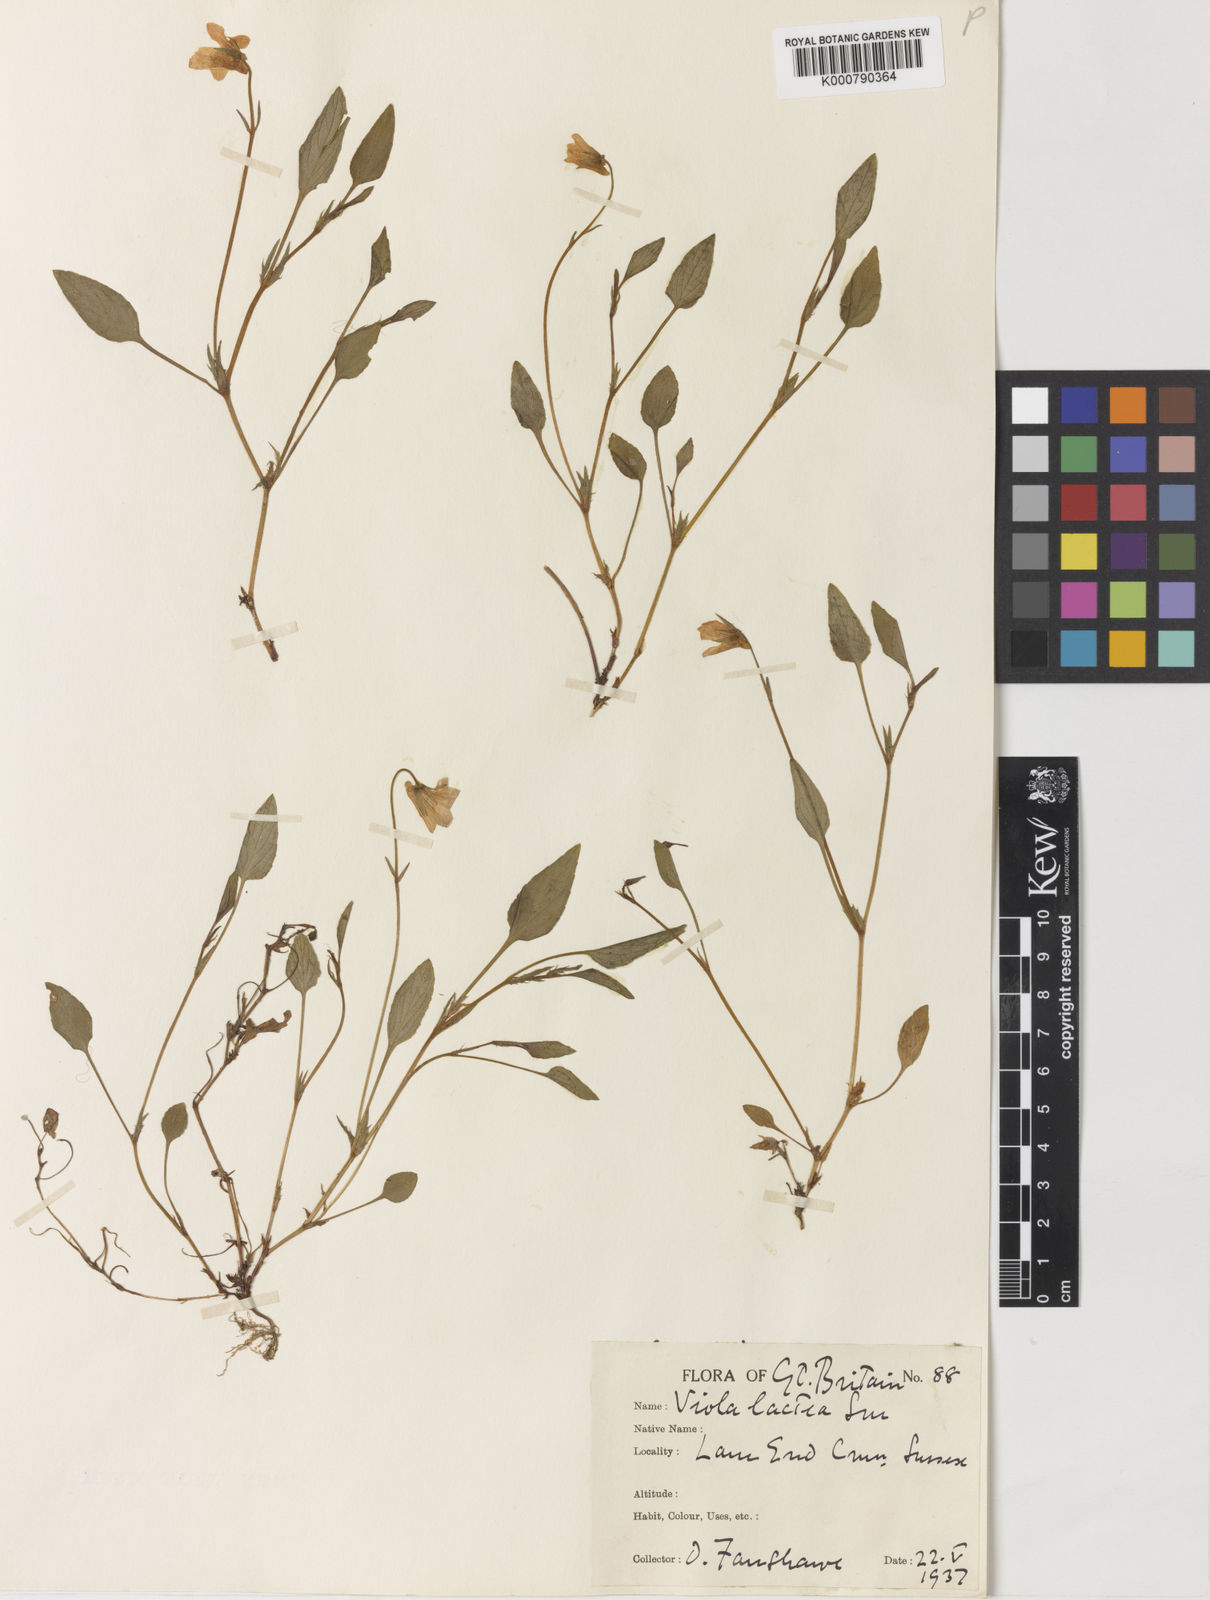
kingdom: Plantae
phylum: Tracheophyta
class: Magnoliopsida
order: Malpighiales
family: Violaceae
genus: Viola
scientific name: Viola lactea
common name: Pale dog-violet
